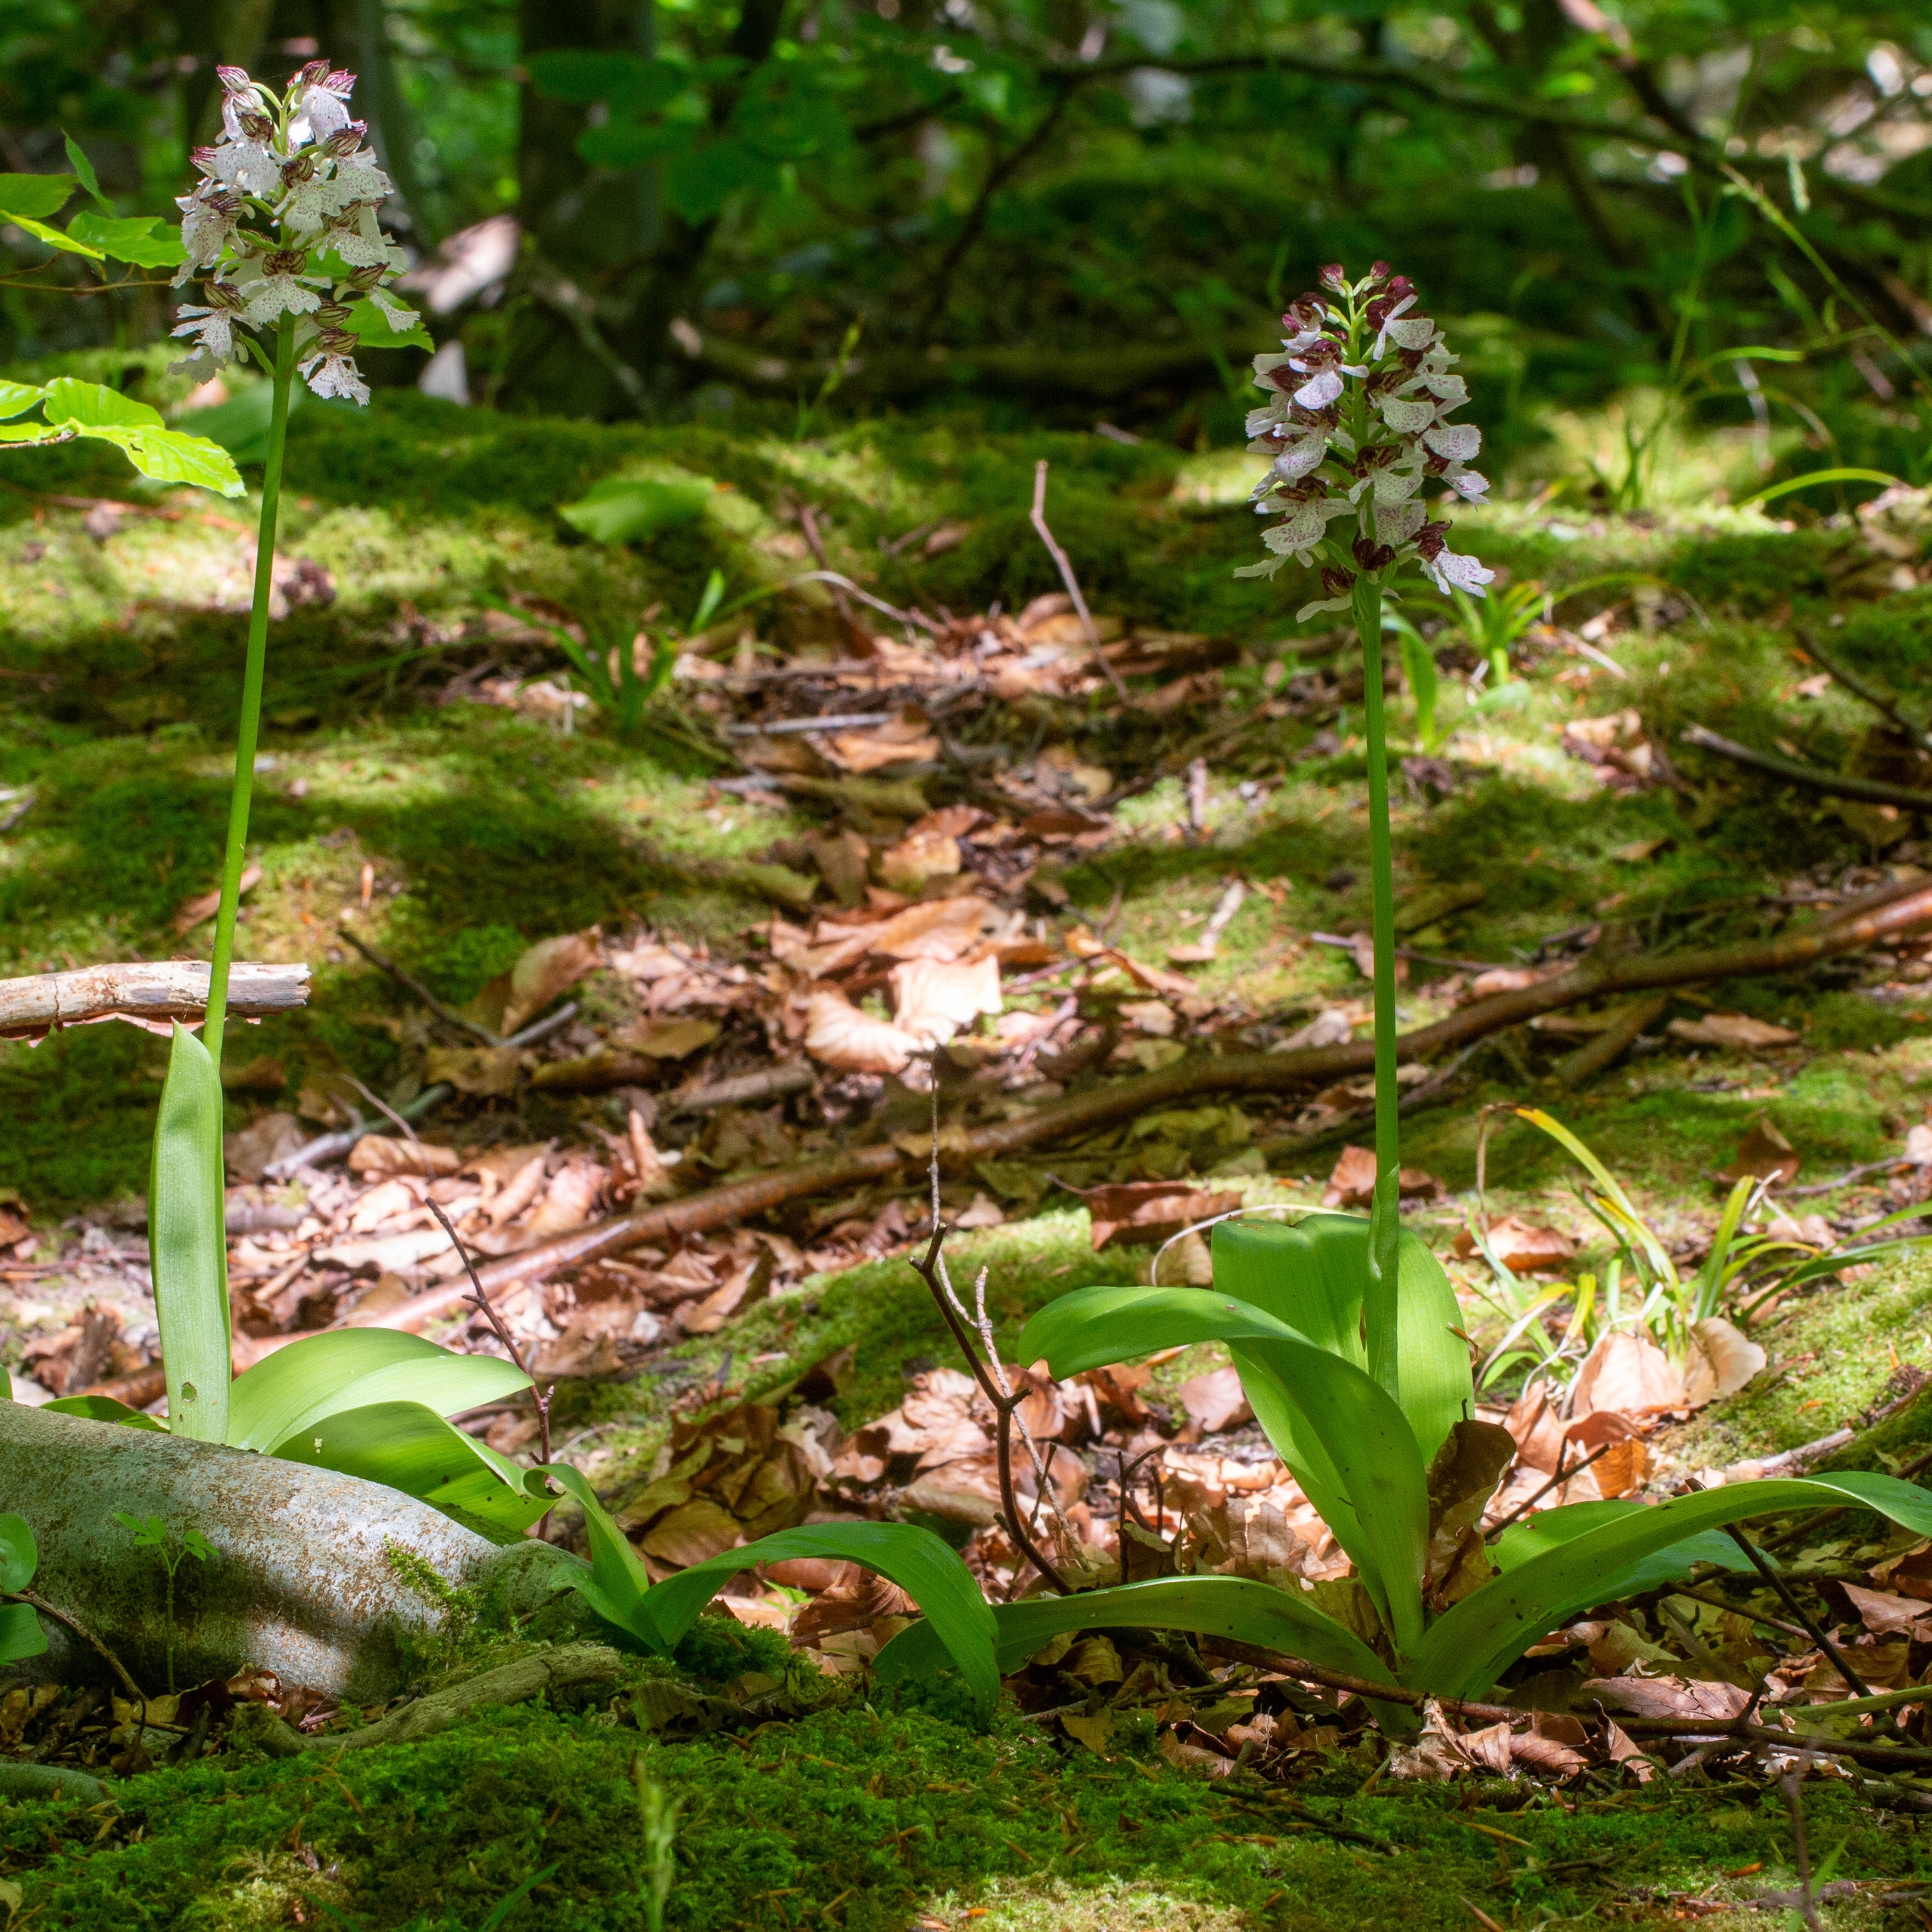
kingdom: Plantae
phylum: Tracheophyta
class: Liliopsida
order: Asparagales
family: Orchidaceae
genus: Orchis
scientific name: Orchis purpurea
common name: Stor gøgeurt
